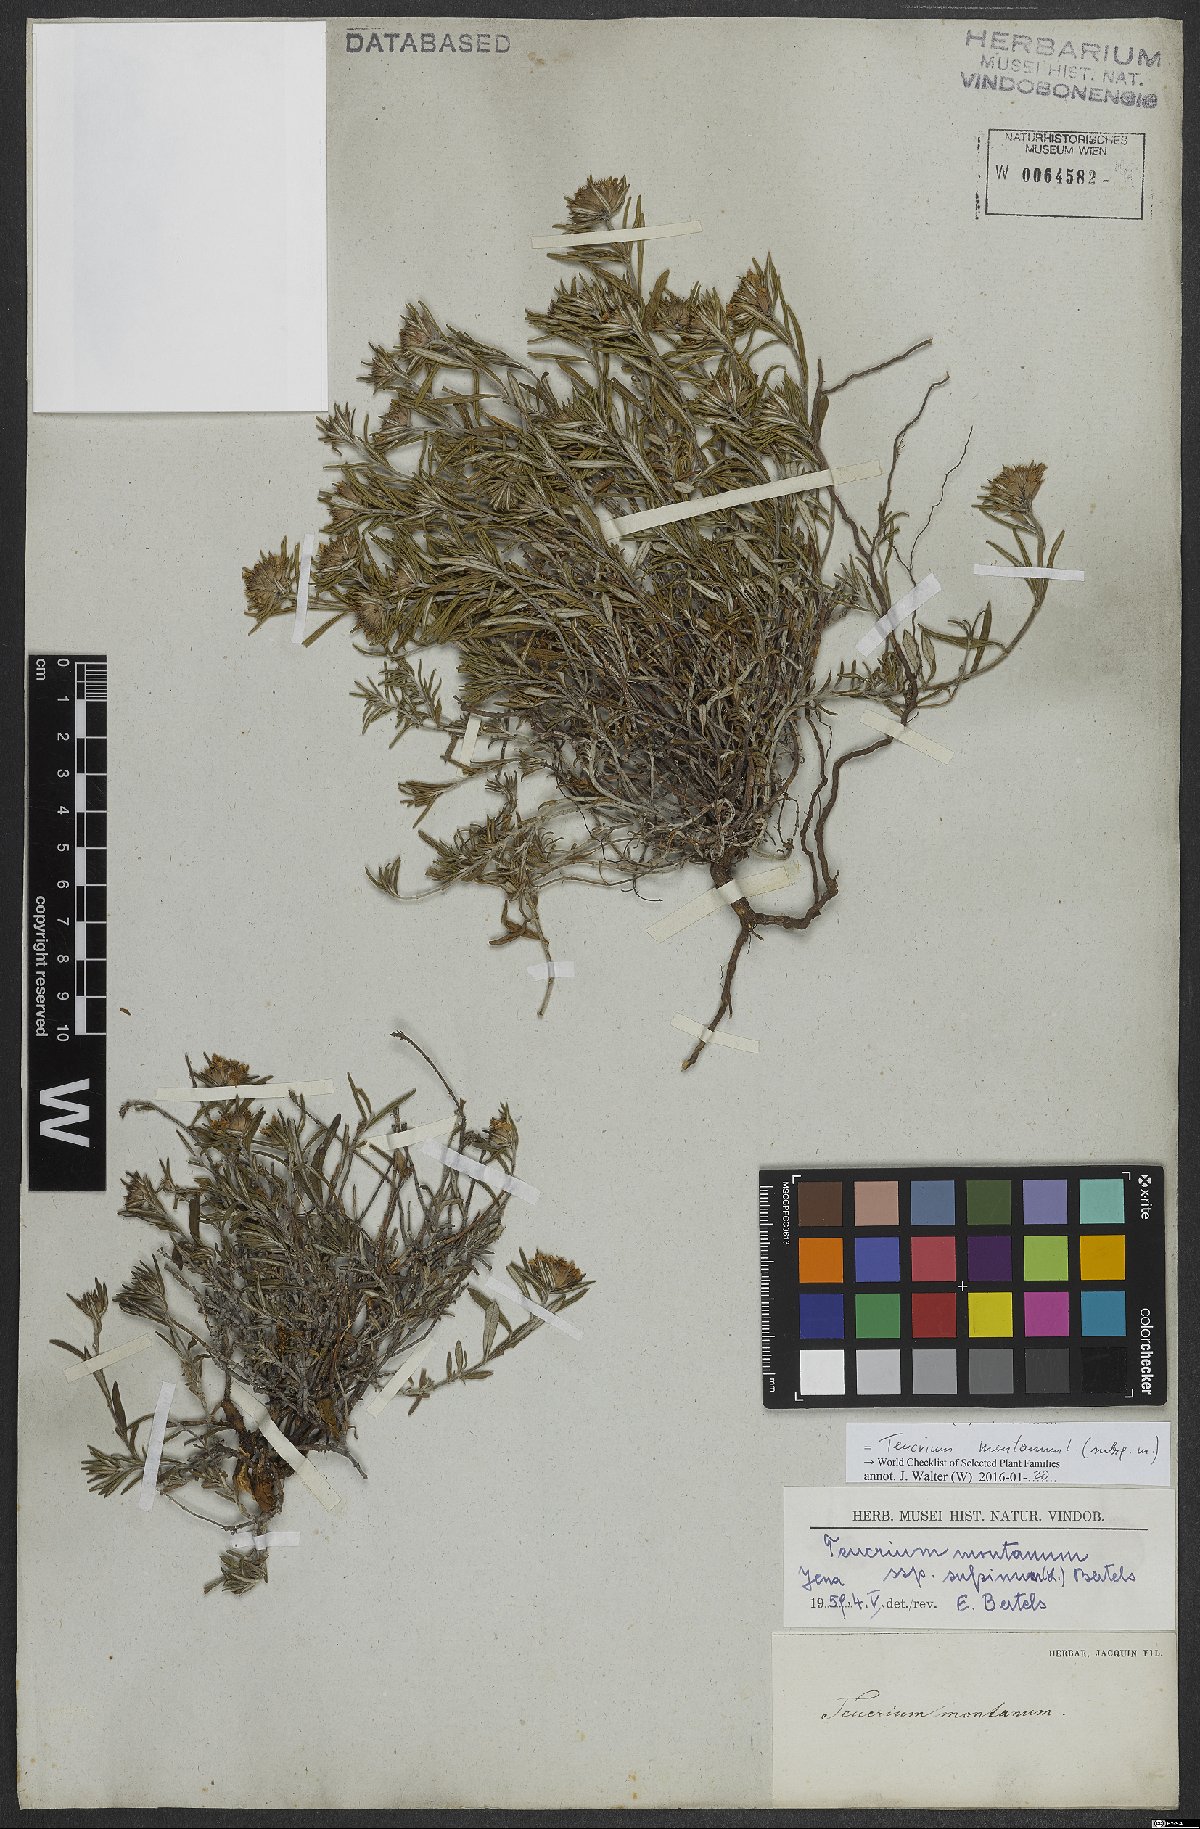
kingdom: Plantae
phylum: Tracheophyta
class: Magnoliopsida
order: Lamiales
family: Lamiaceae
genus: Teucrium
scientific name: Teucrium montanum
